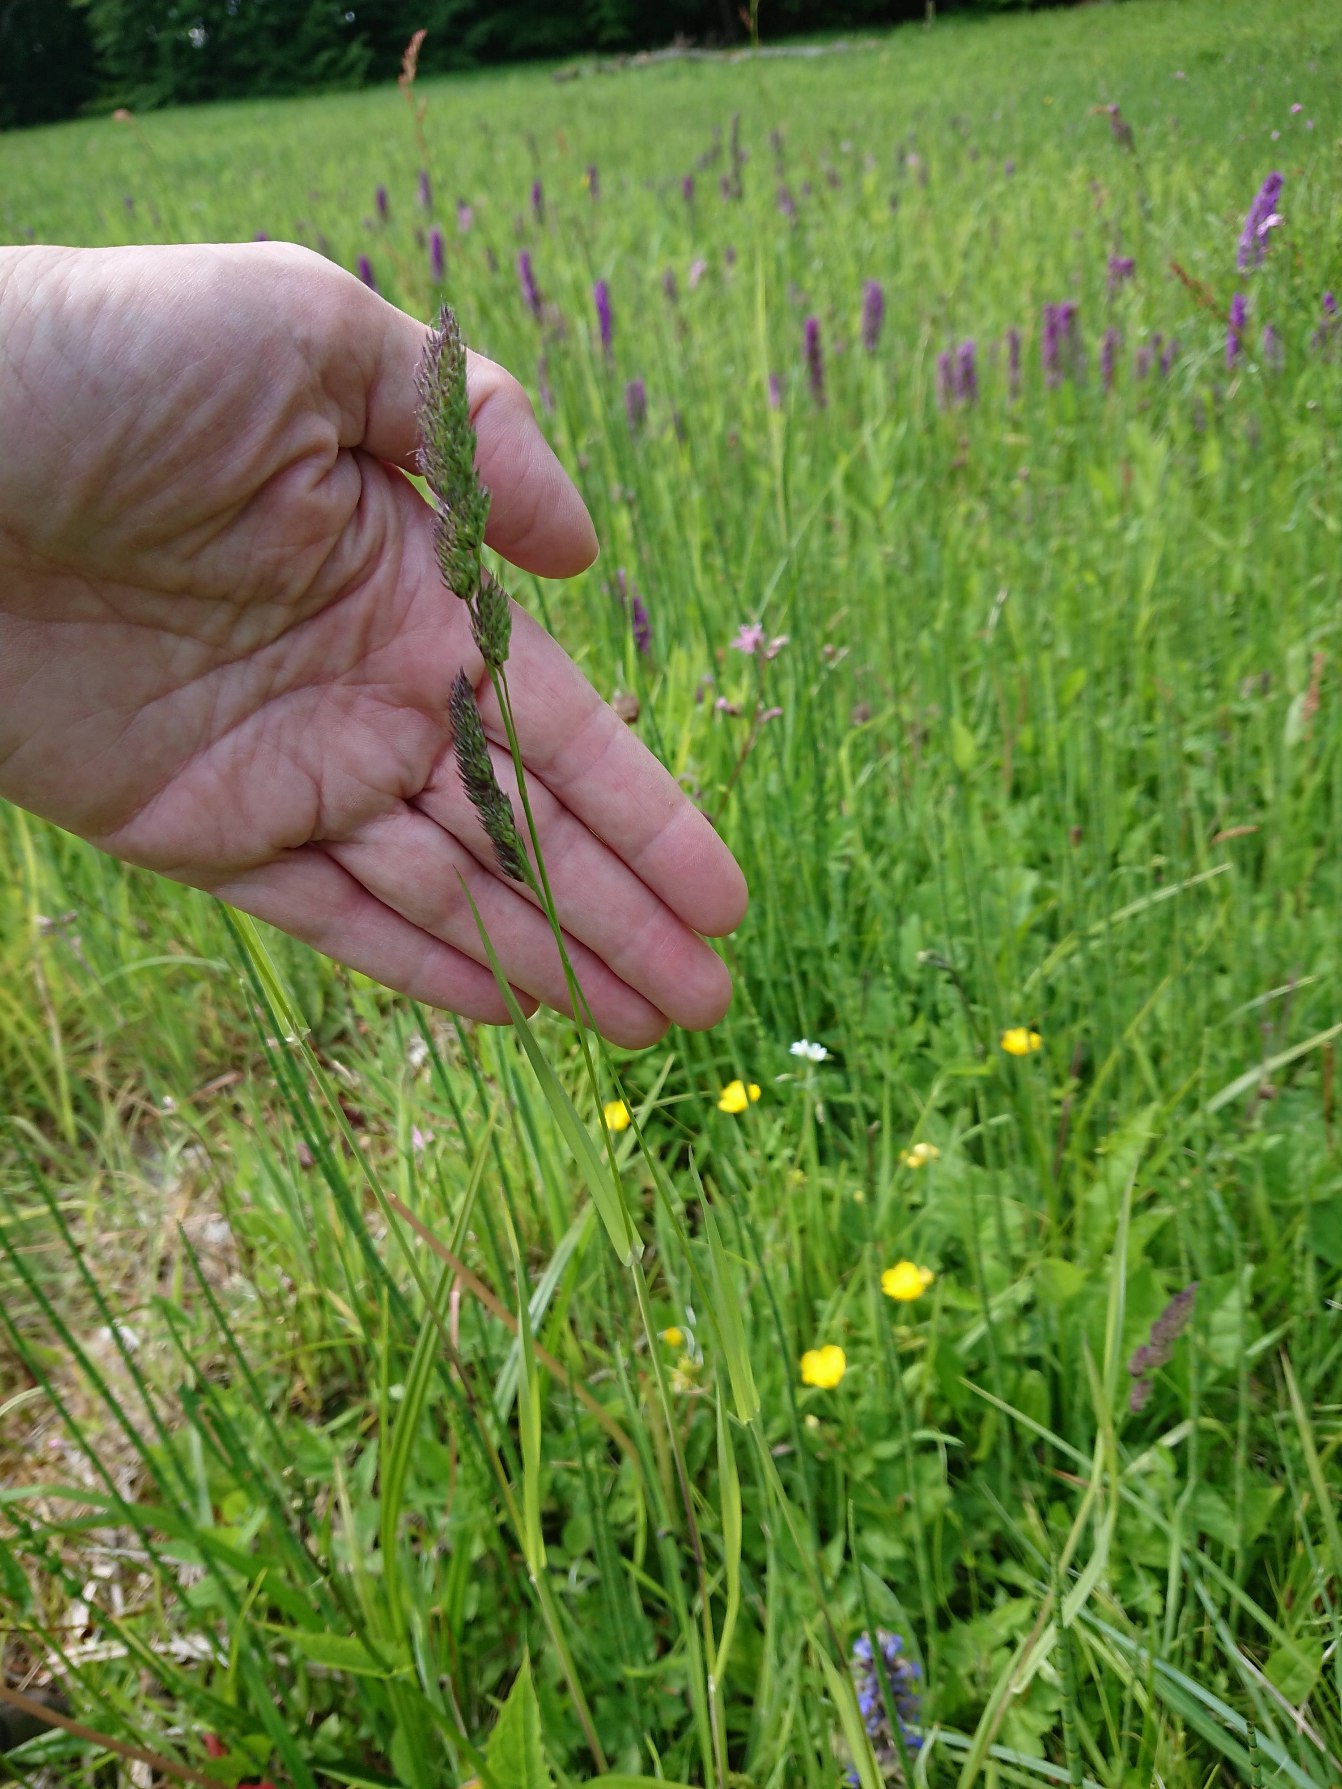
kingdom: Plantae
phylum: Tracheophyta
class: Liliopsida
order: Poales
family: Poaceae
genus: Dactylis
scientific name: Dactylis glomerata
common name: Almindelig hundegræs
